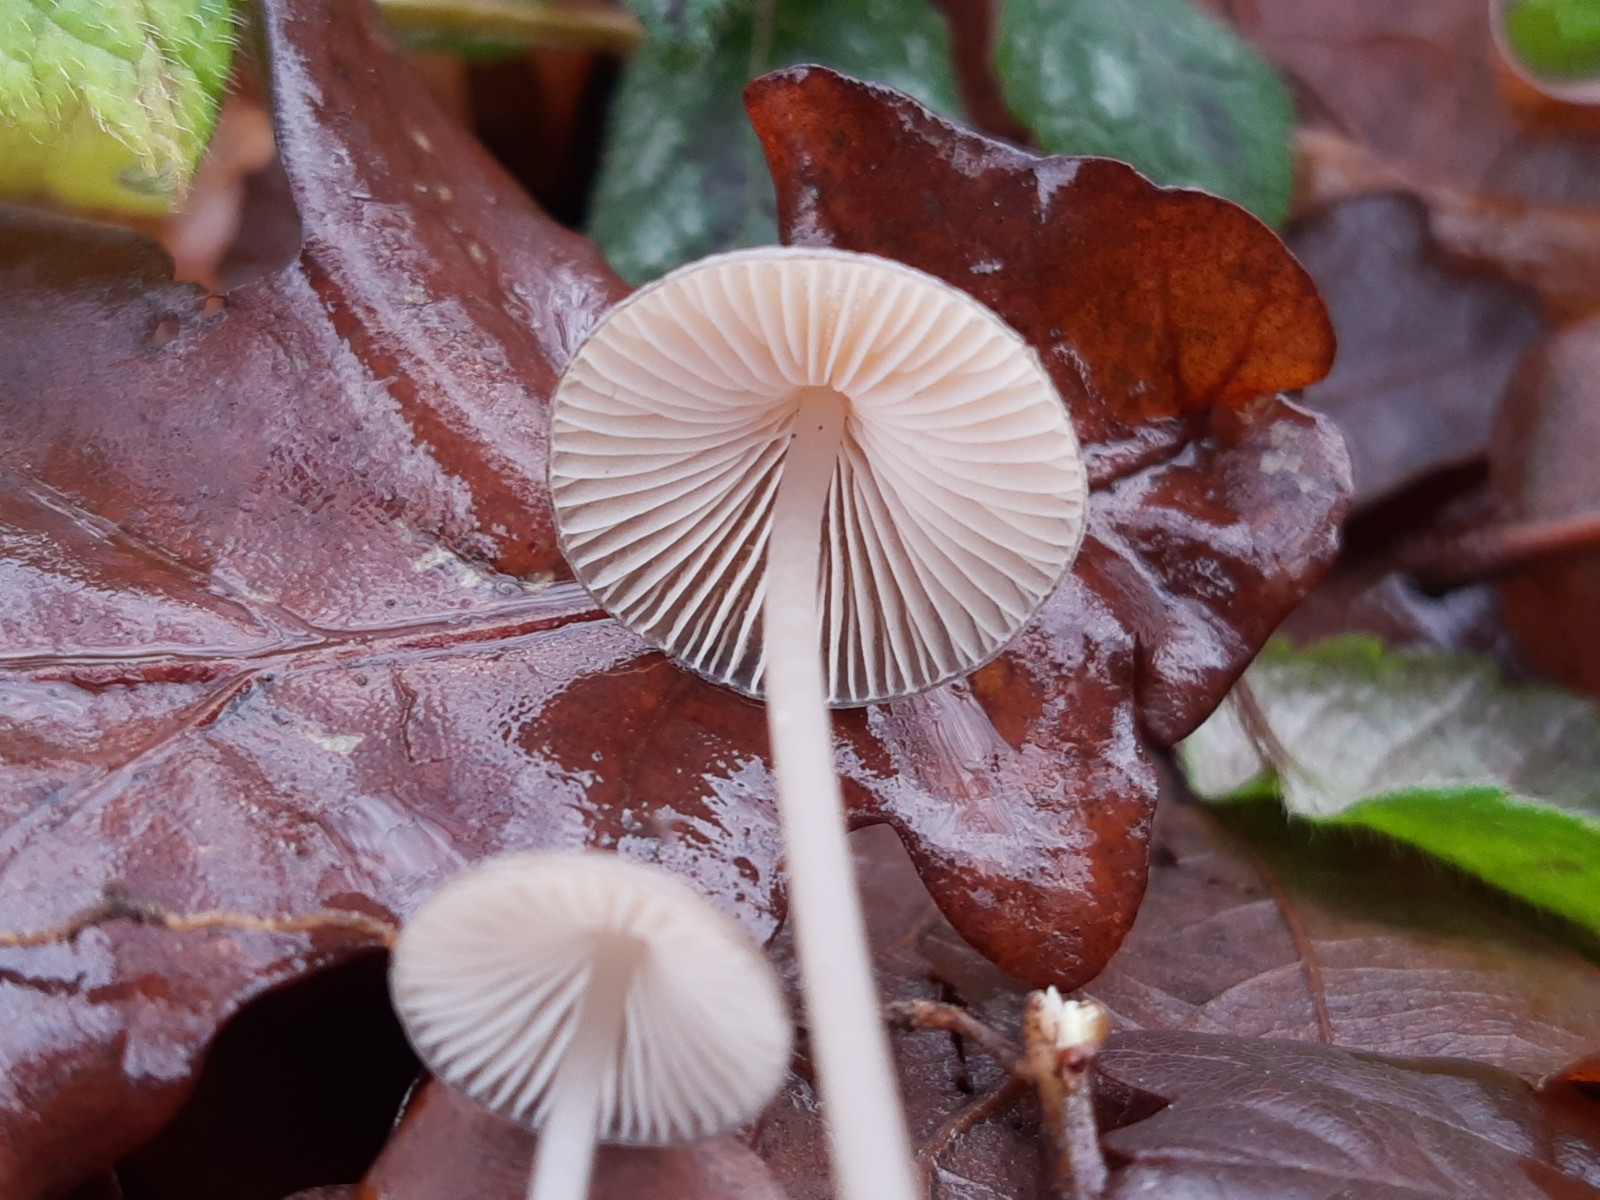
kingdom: Fungi
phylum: Basidiomycota
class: Agaricomycetes
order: Agaricales
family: Mycenaceae
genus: Mycena
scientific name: Mycena vitilis
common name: blankstokket huesvamp
